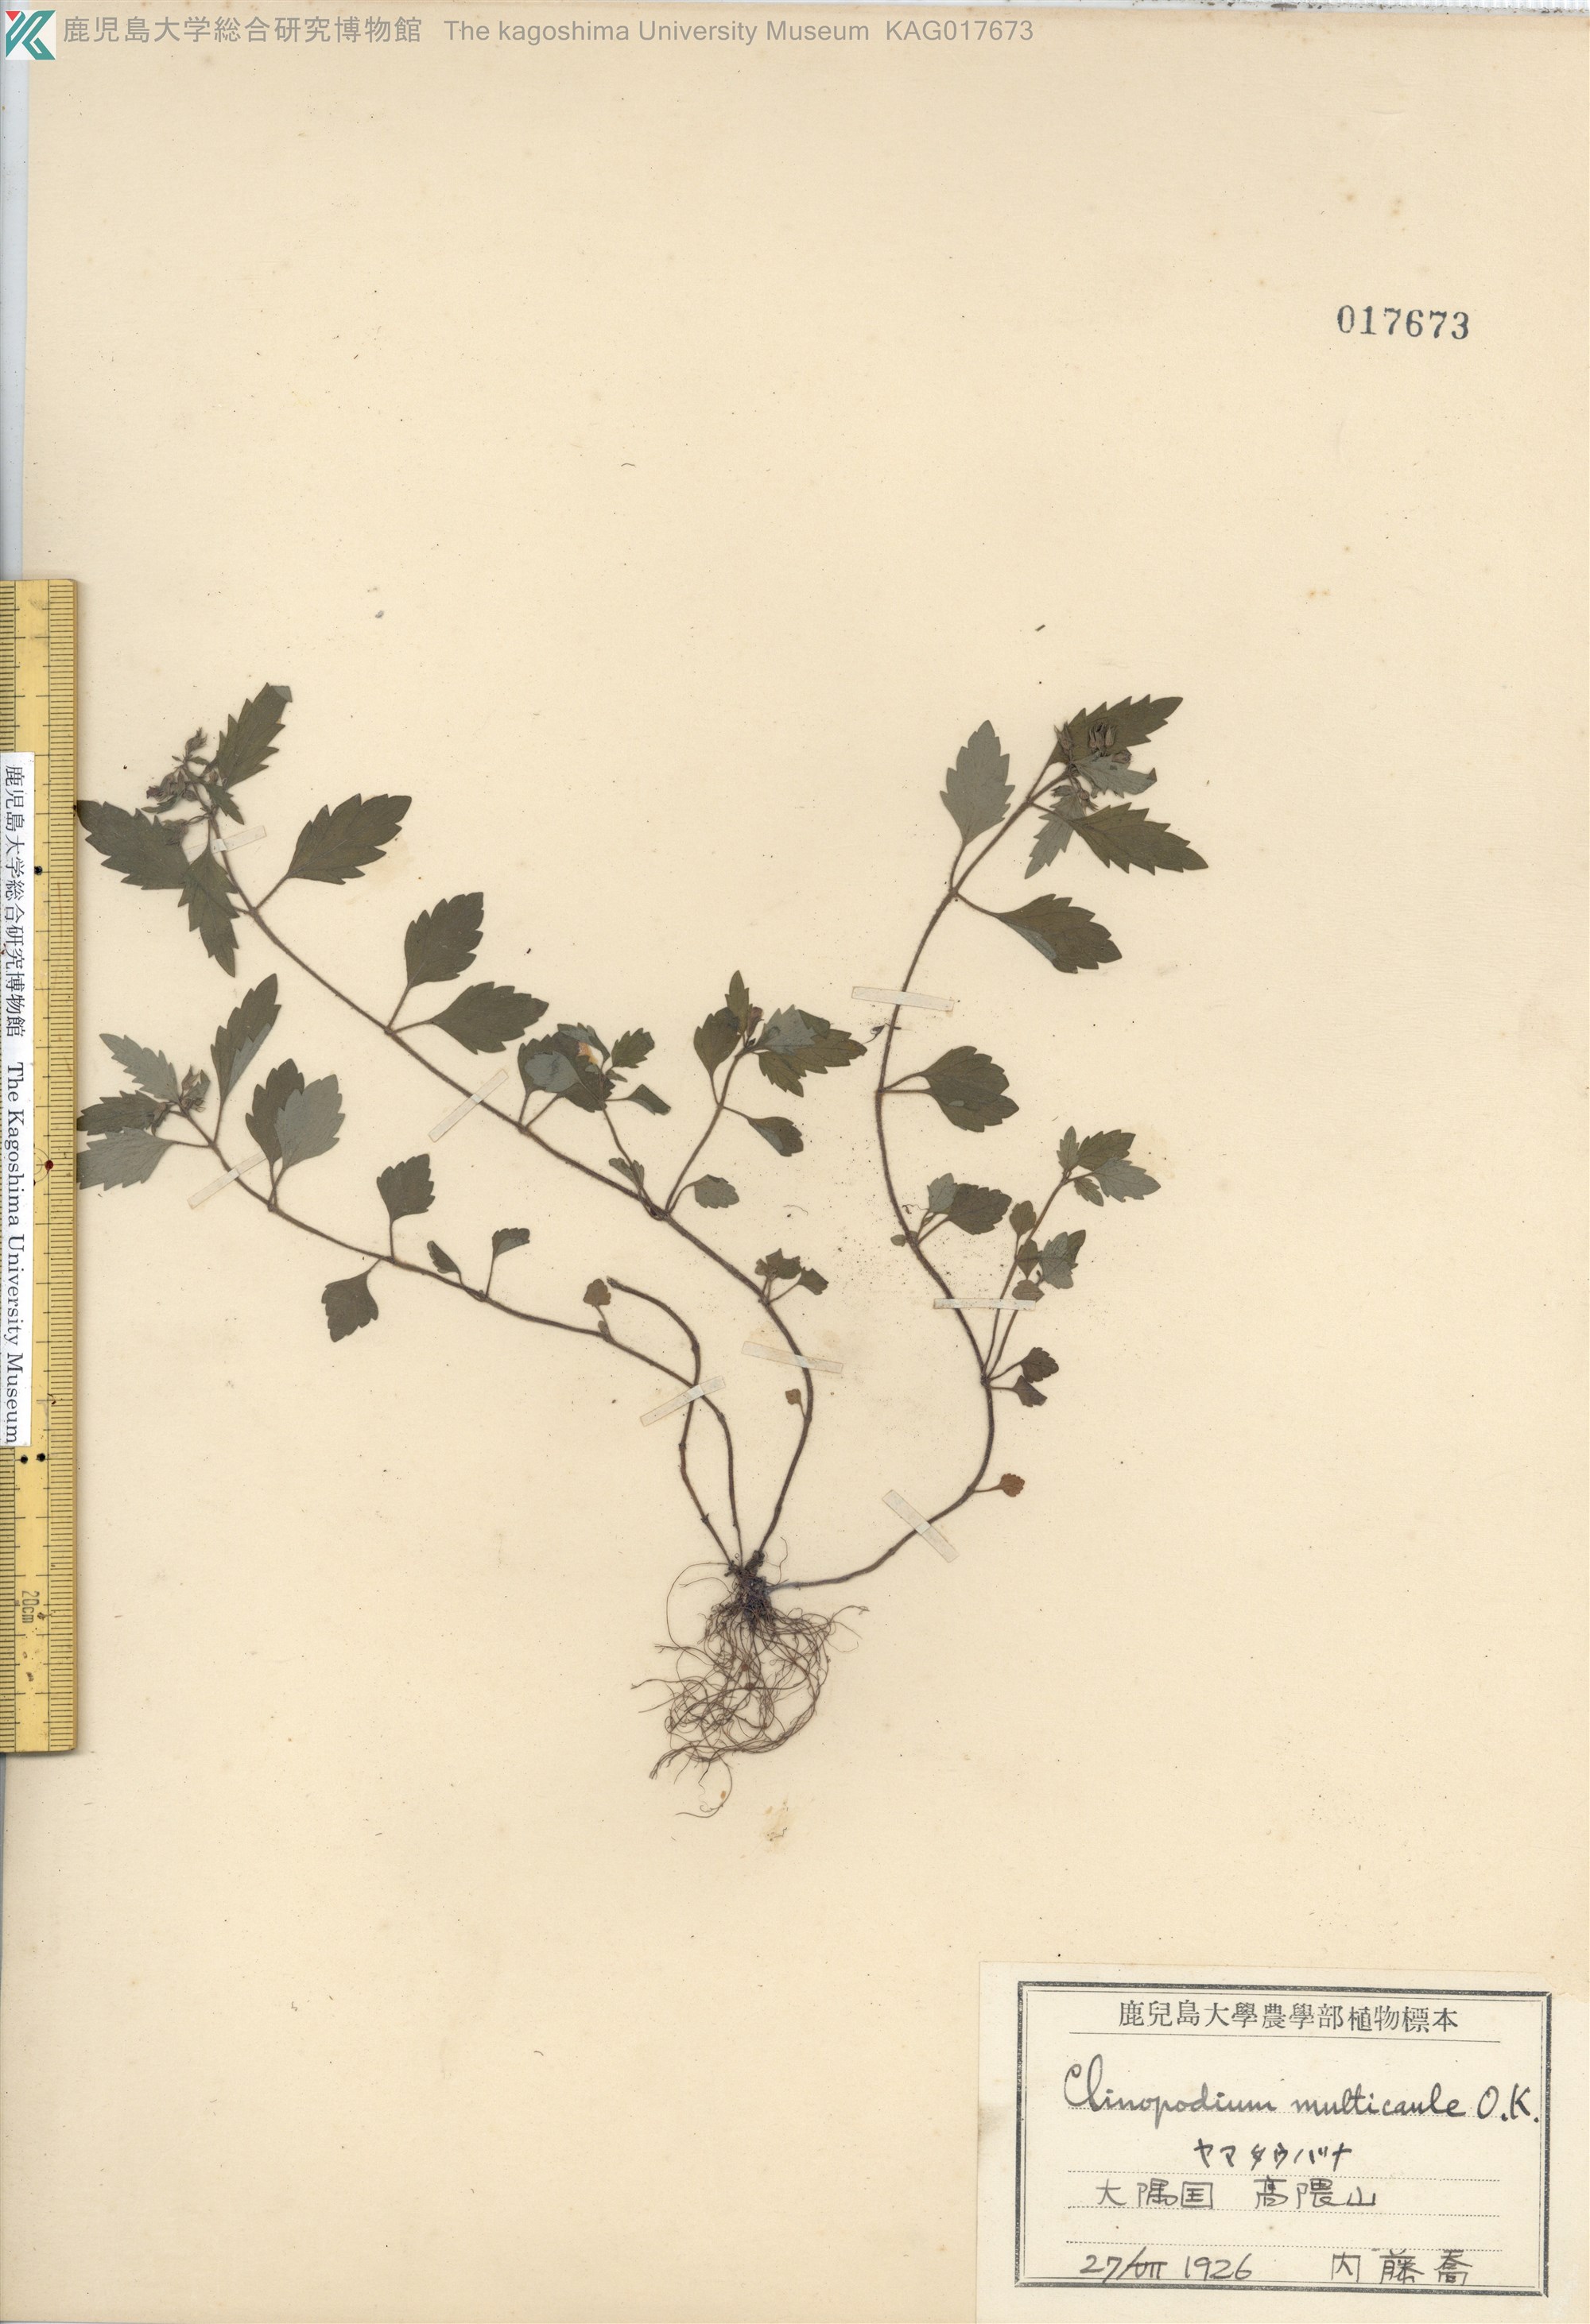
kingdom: Plantae
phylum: Tracheophyta
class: Magnoliopsida
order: Lamiales
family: Lamiaceae
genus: Clinopodium
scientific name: Clinopodium multicaule
